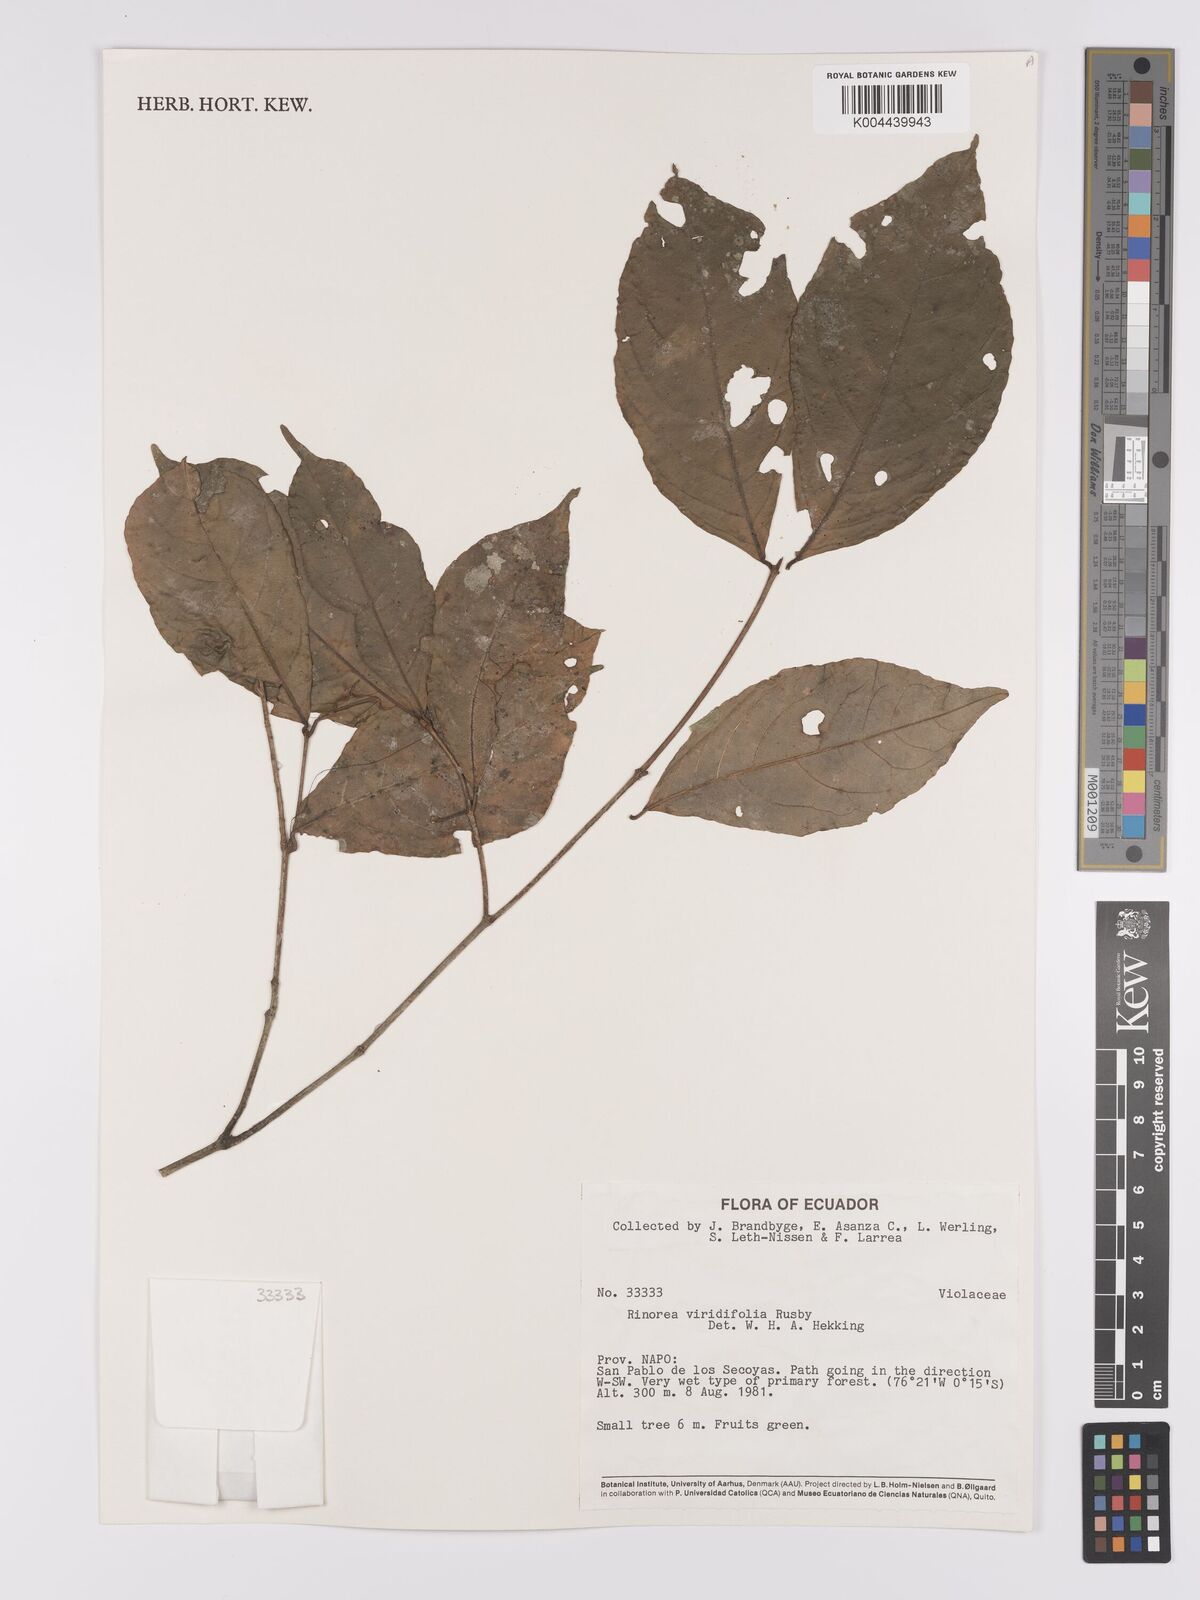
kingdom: Plantae
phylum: Tracheophyta
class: Magnoliopsida
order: Malpighiales
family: Violaceae
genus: Rinorea
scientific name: Rinorea viridifolia
